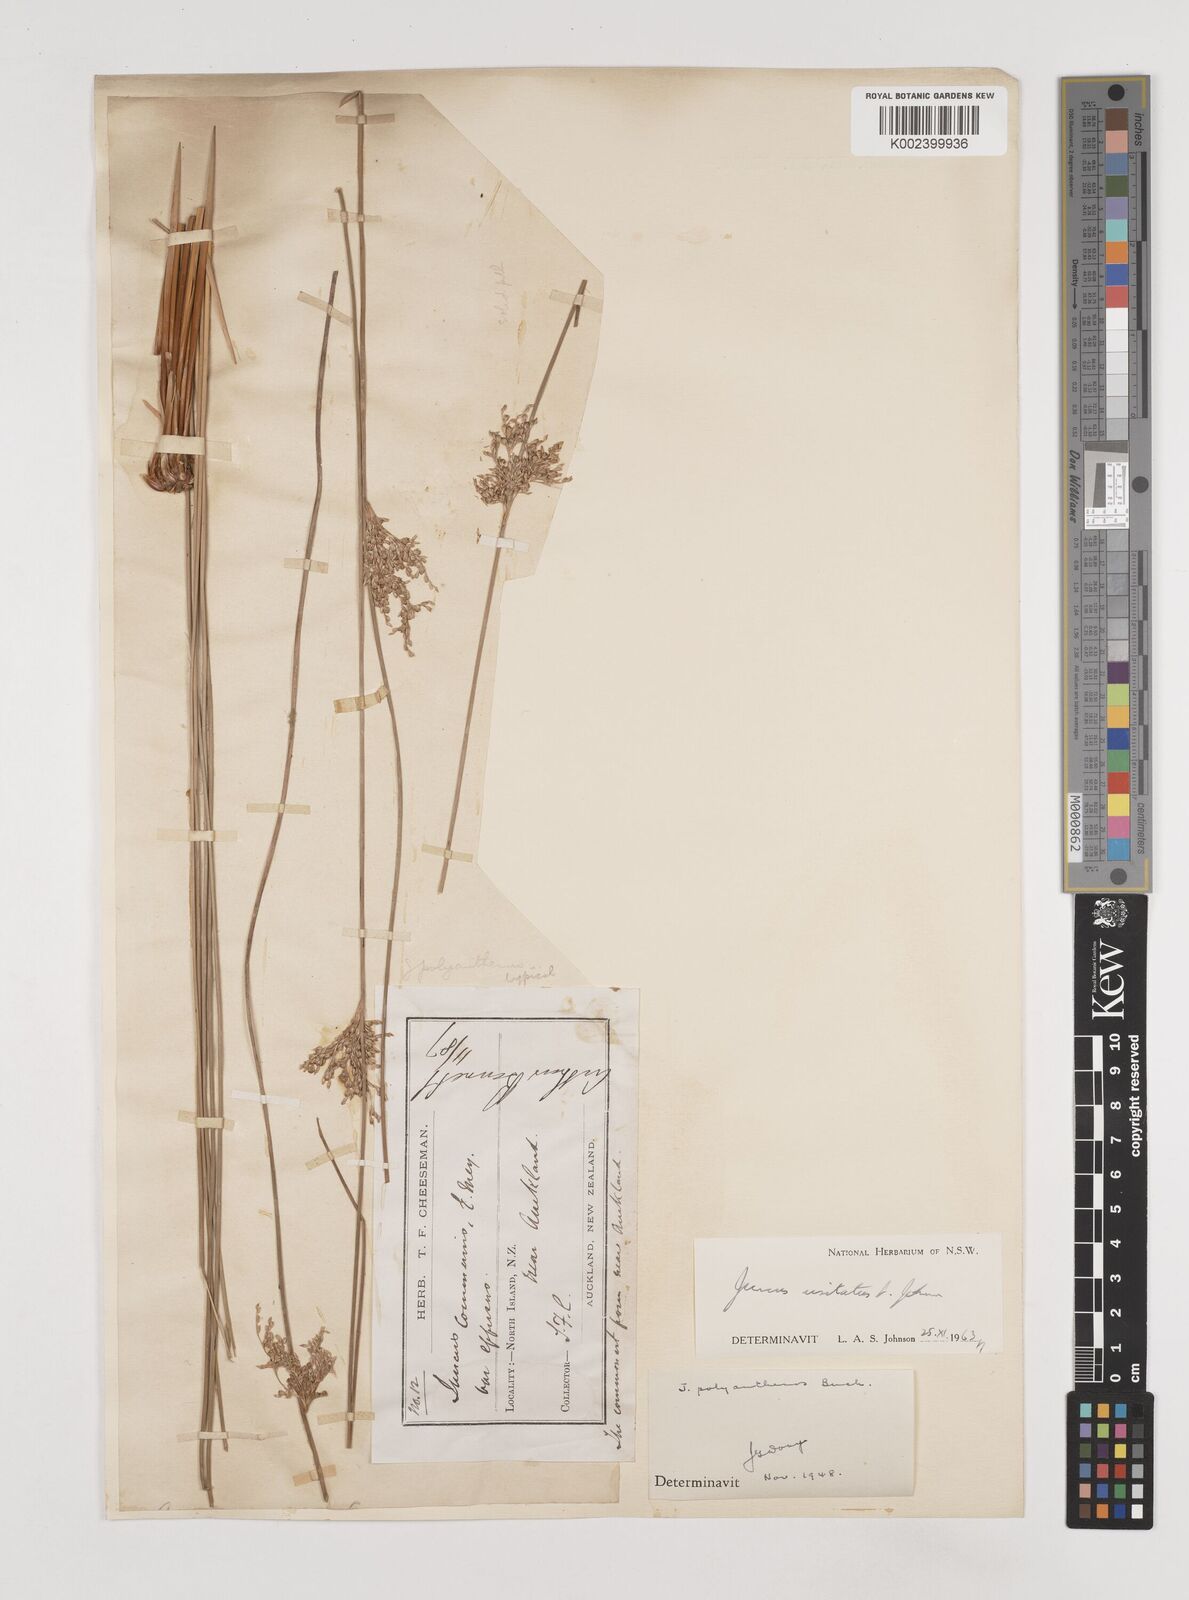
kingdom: Plantae
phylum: Tracheophyta
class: Liliopsida
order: Poales
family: Juncaceae
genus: Juncus
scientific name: Juncus usitatus
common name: Rush
